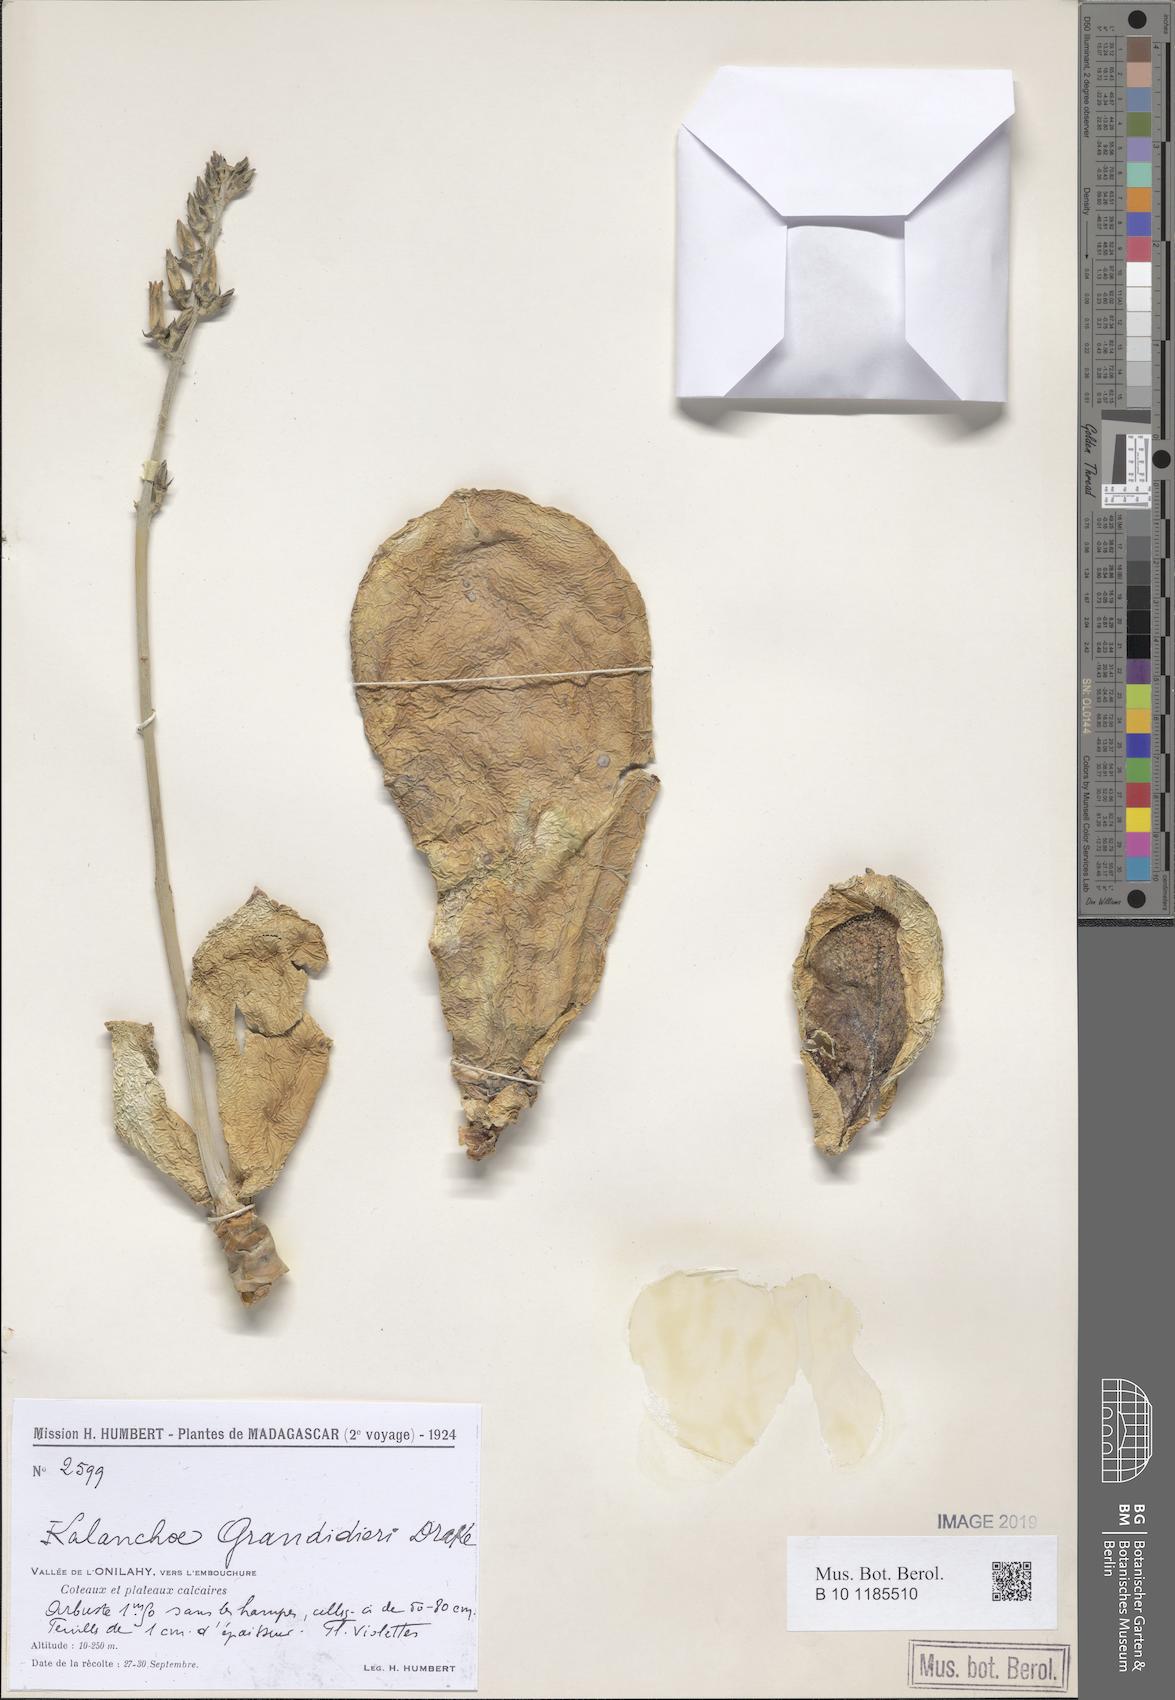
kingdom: Plantae
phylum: Tracheophyta
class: Magnoliopsida
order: Saxifragales
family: Crassulaceae
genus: Kalanchoe
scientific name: Kalanchoe grandidieri
